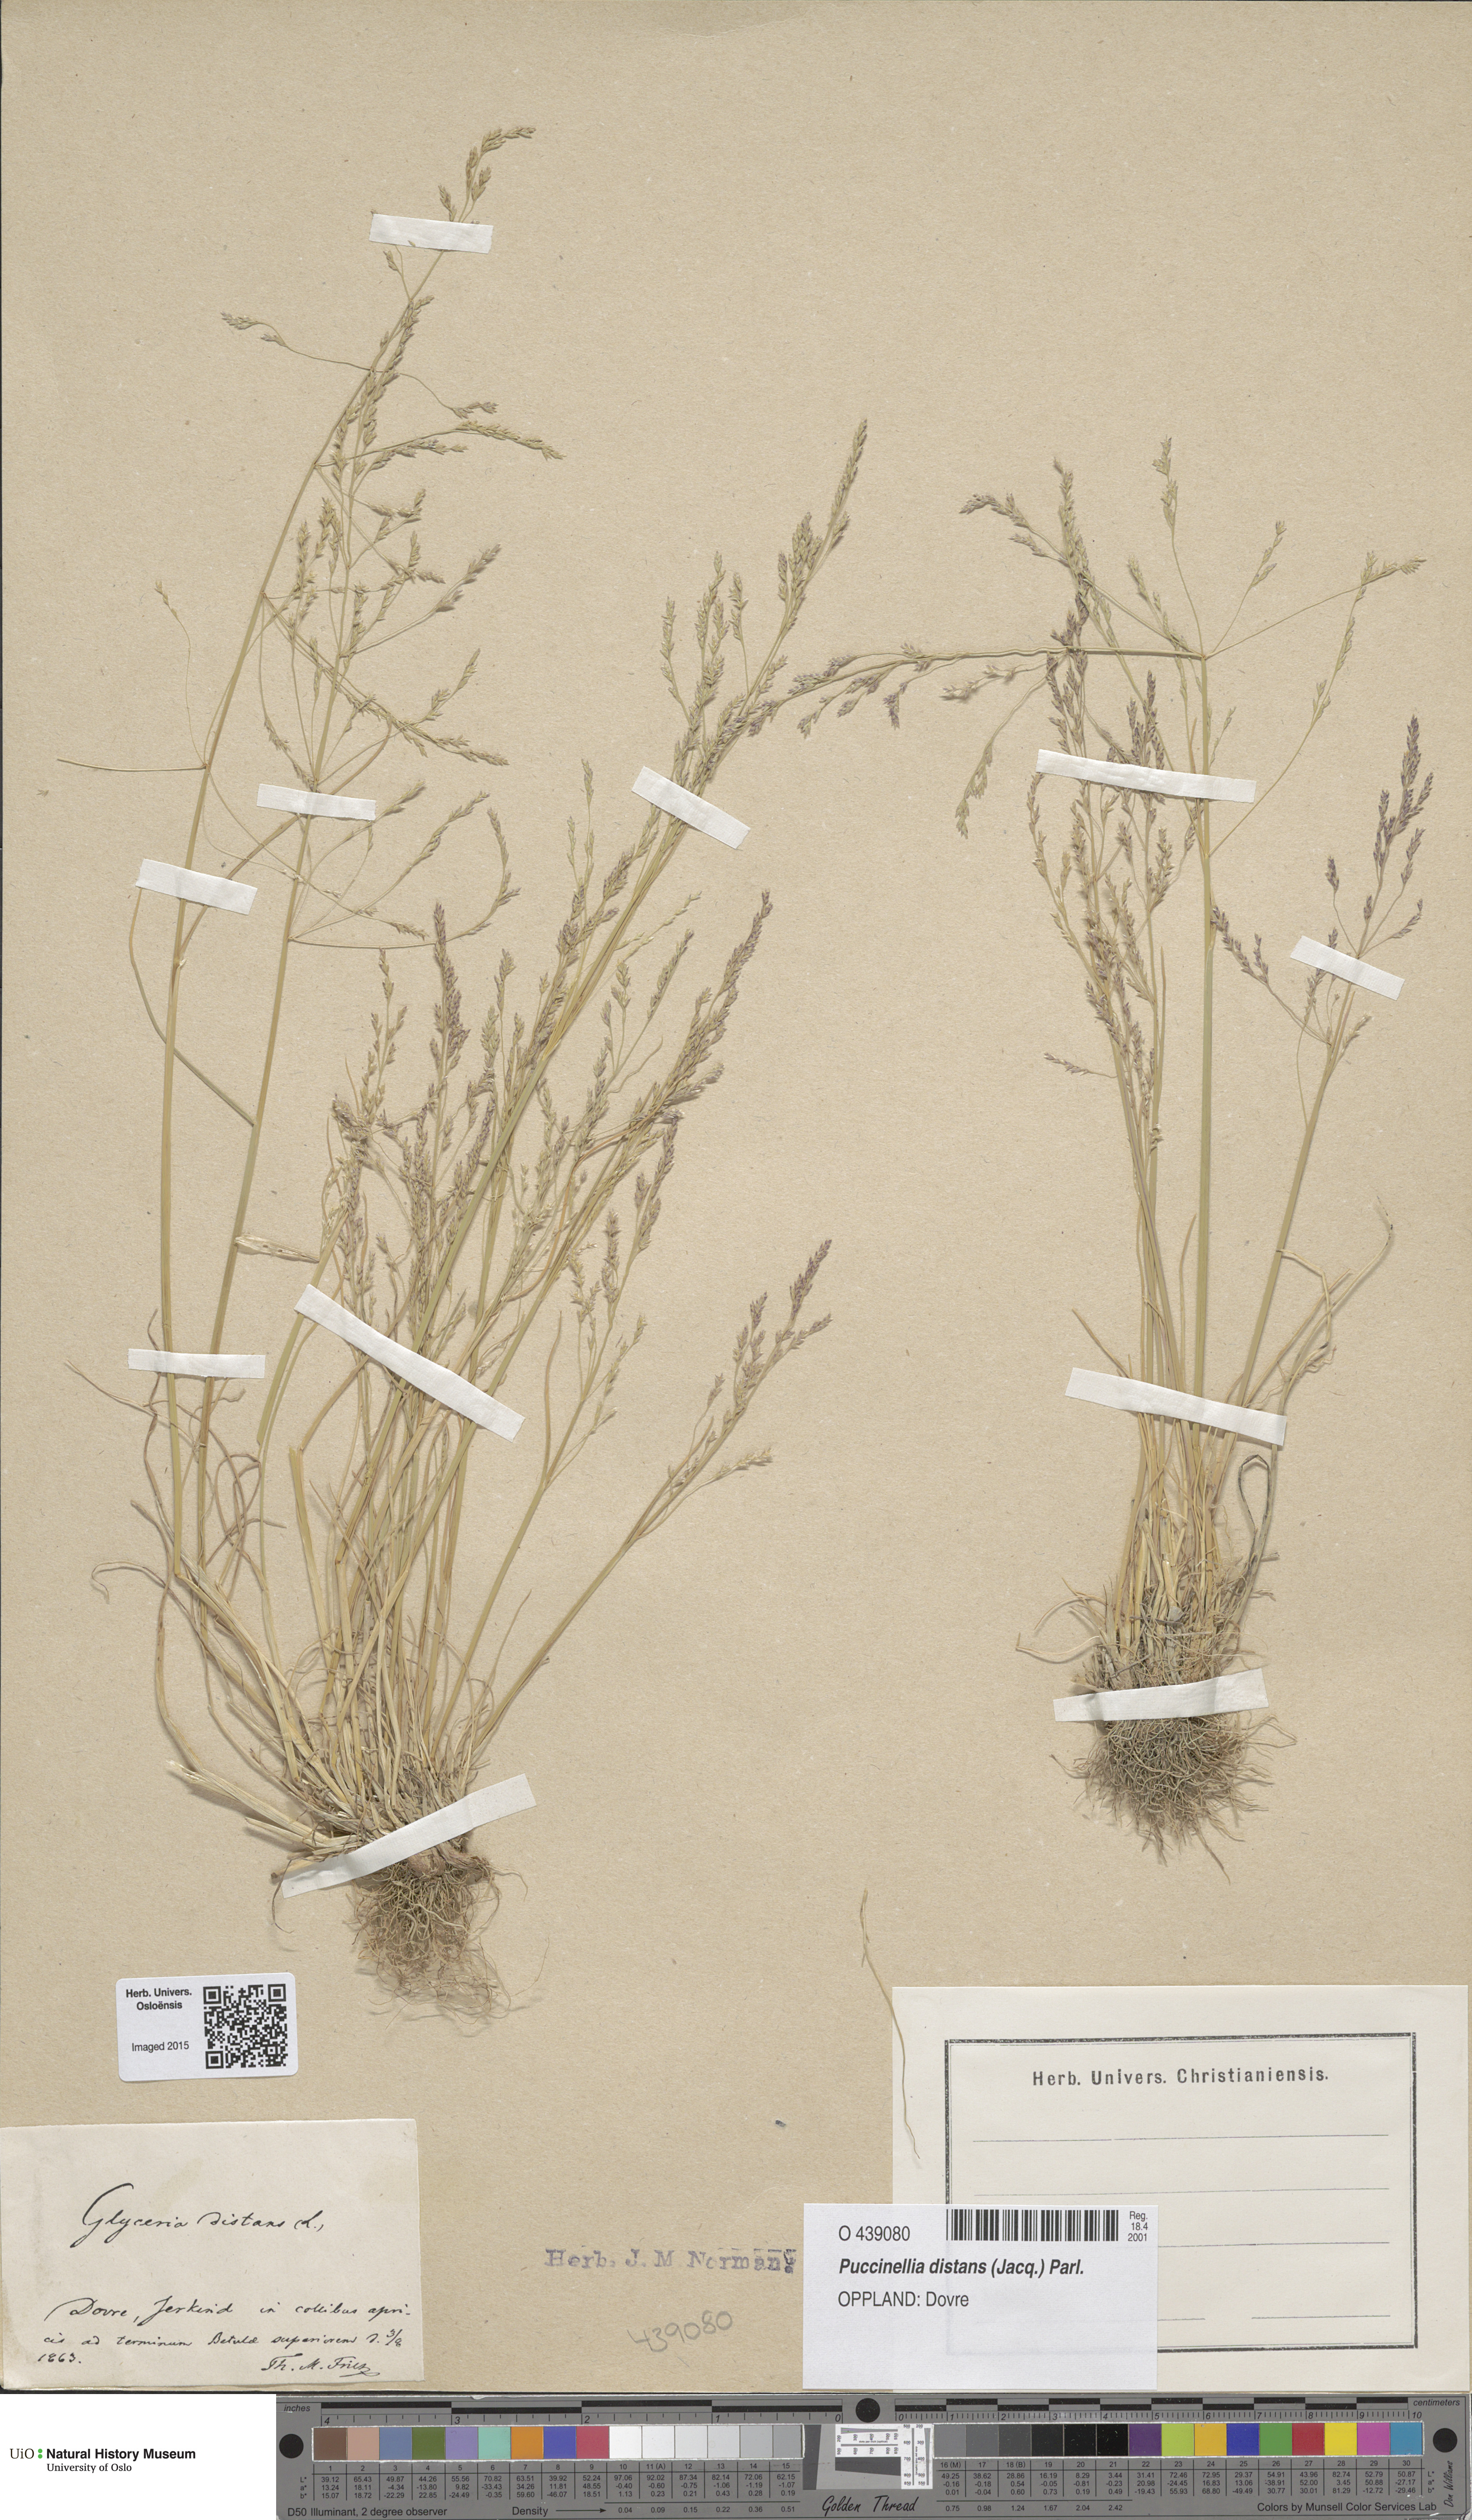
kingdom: Plantae
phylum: Tracheophyta
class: Liliopsida
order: Poales
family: Poaceae
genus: Puccinellia
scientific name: Puccinellia distans
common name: Weeping alkaligrass
